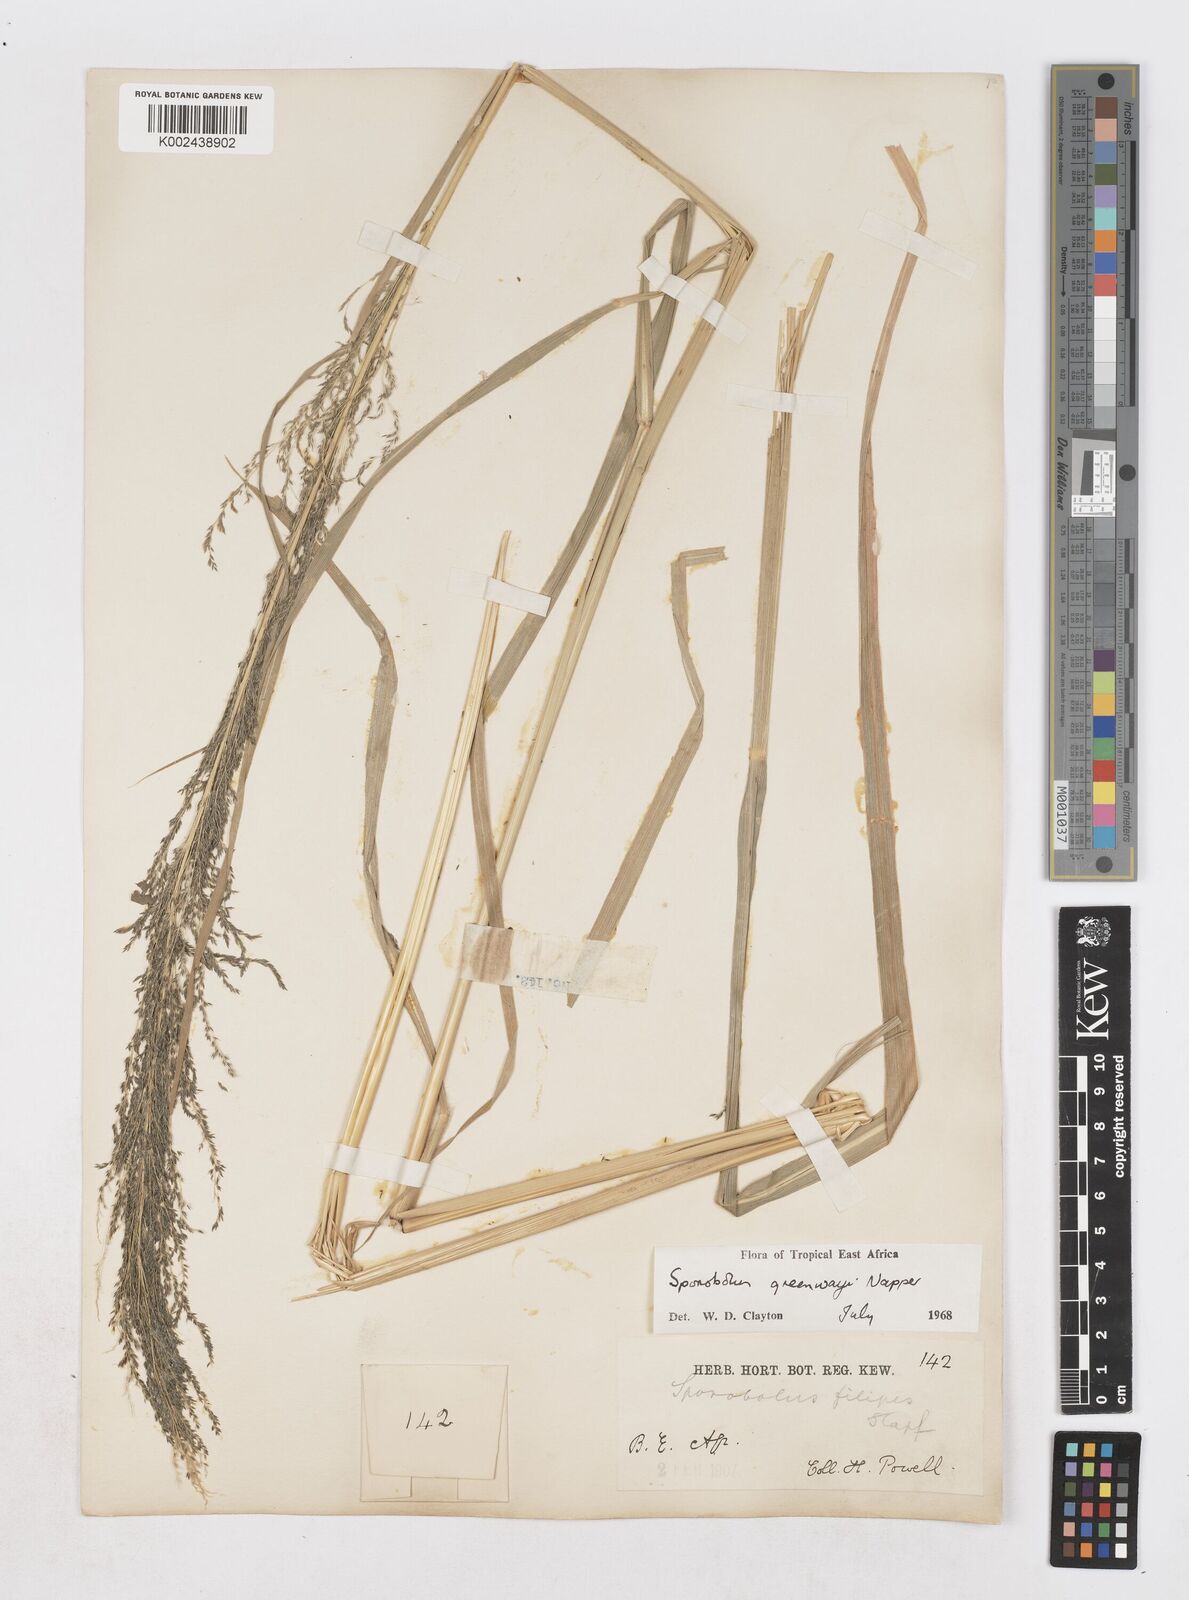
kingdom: Plantae
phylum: Tracheophyta
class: Liliopsida
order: Poales
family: Poaceae
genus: Sporobolus
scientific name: Sporobolus macranthelus
